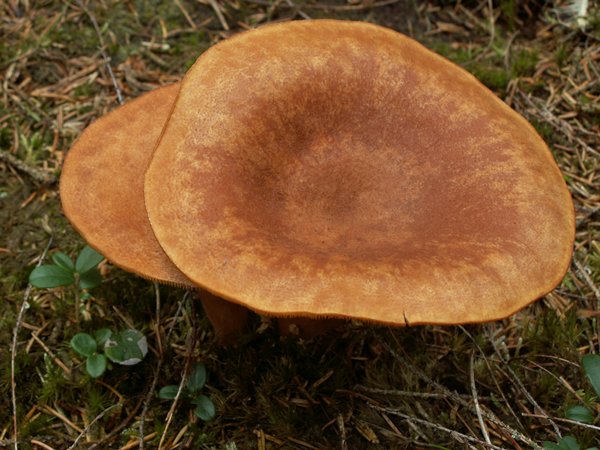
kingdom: Fungi
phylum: Basidiomycota
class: Agaricomycetes
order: Russulales
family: Russulaceae
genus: Lactarius
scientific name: Lactarius helvus
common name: mose-mælkehat
